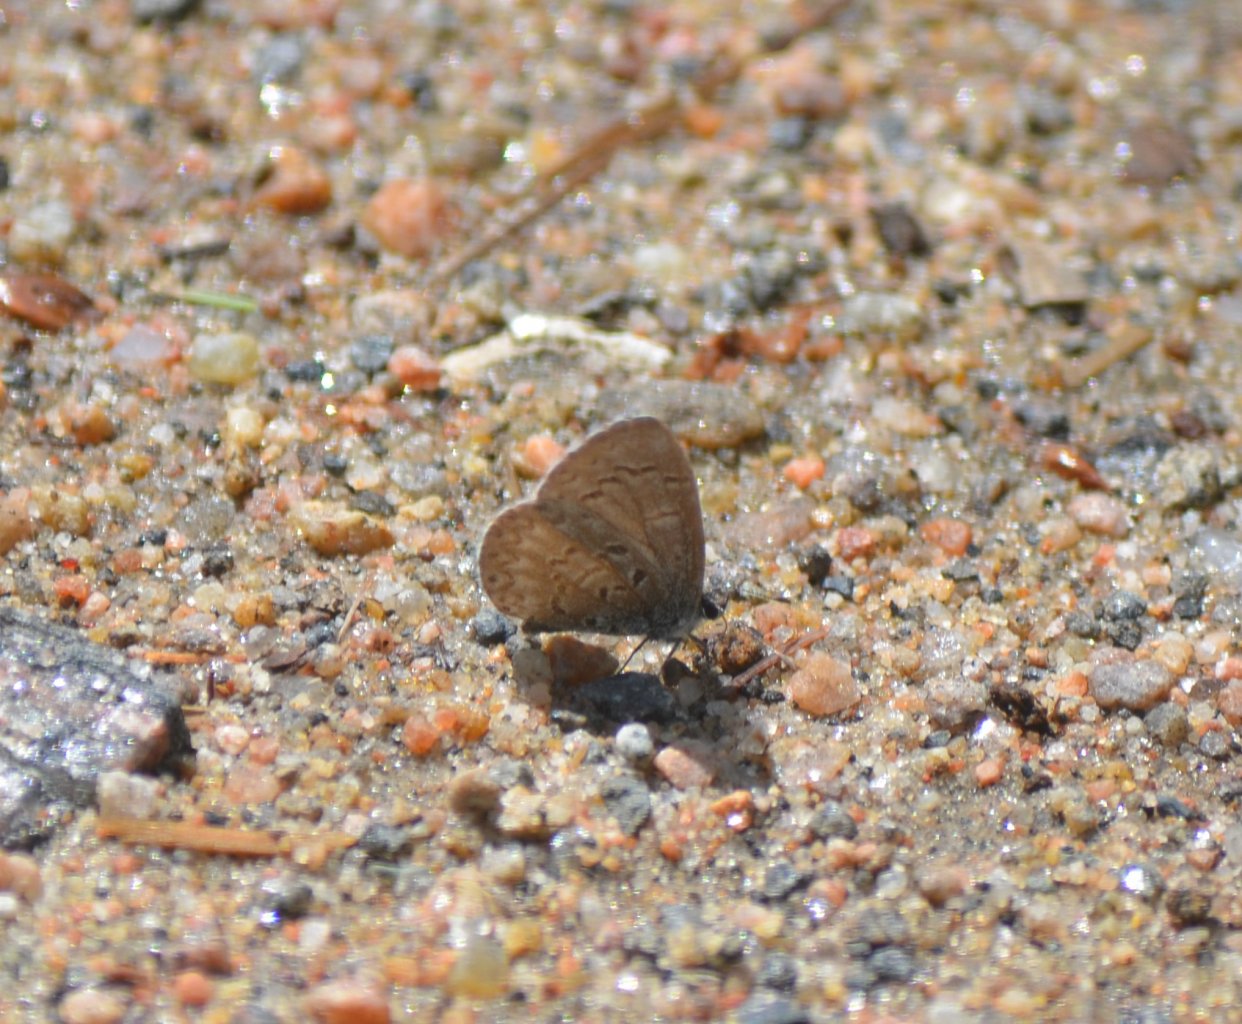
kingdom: Animalia
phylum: Arthropoda
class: Insecta
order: Lepidoptera
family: Lycaenidae
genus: Celastrina
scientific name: Celastrina lucia
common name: Northern Spring Azure
